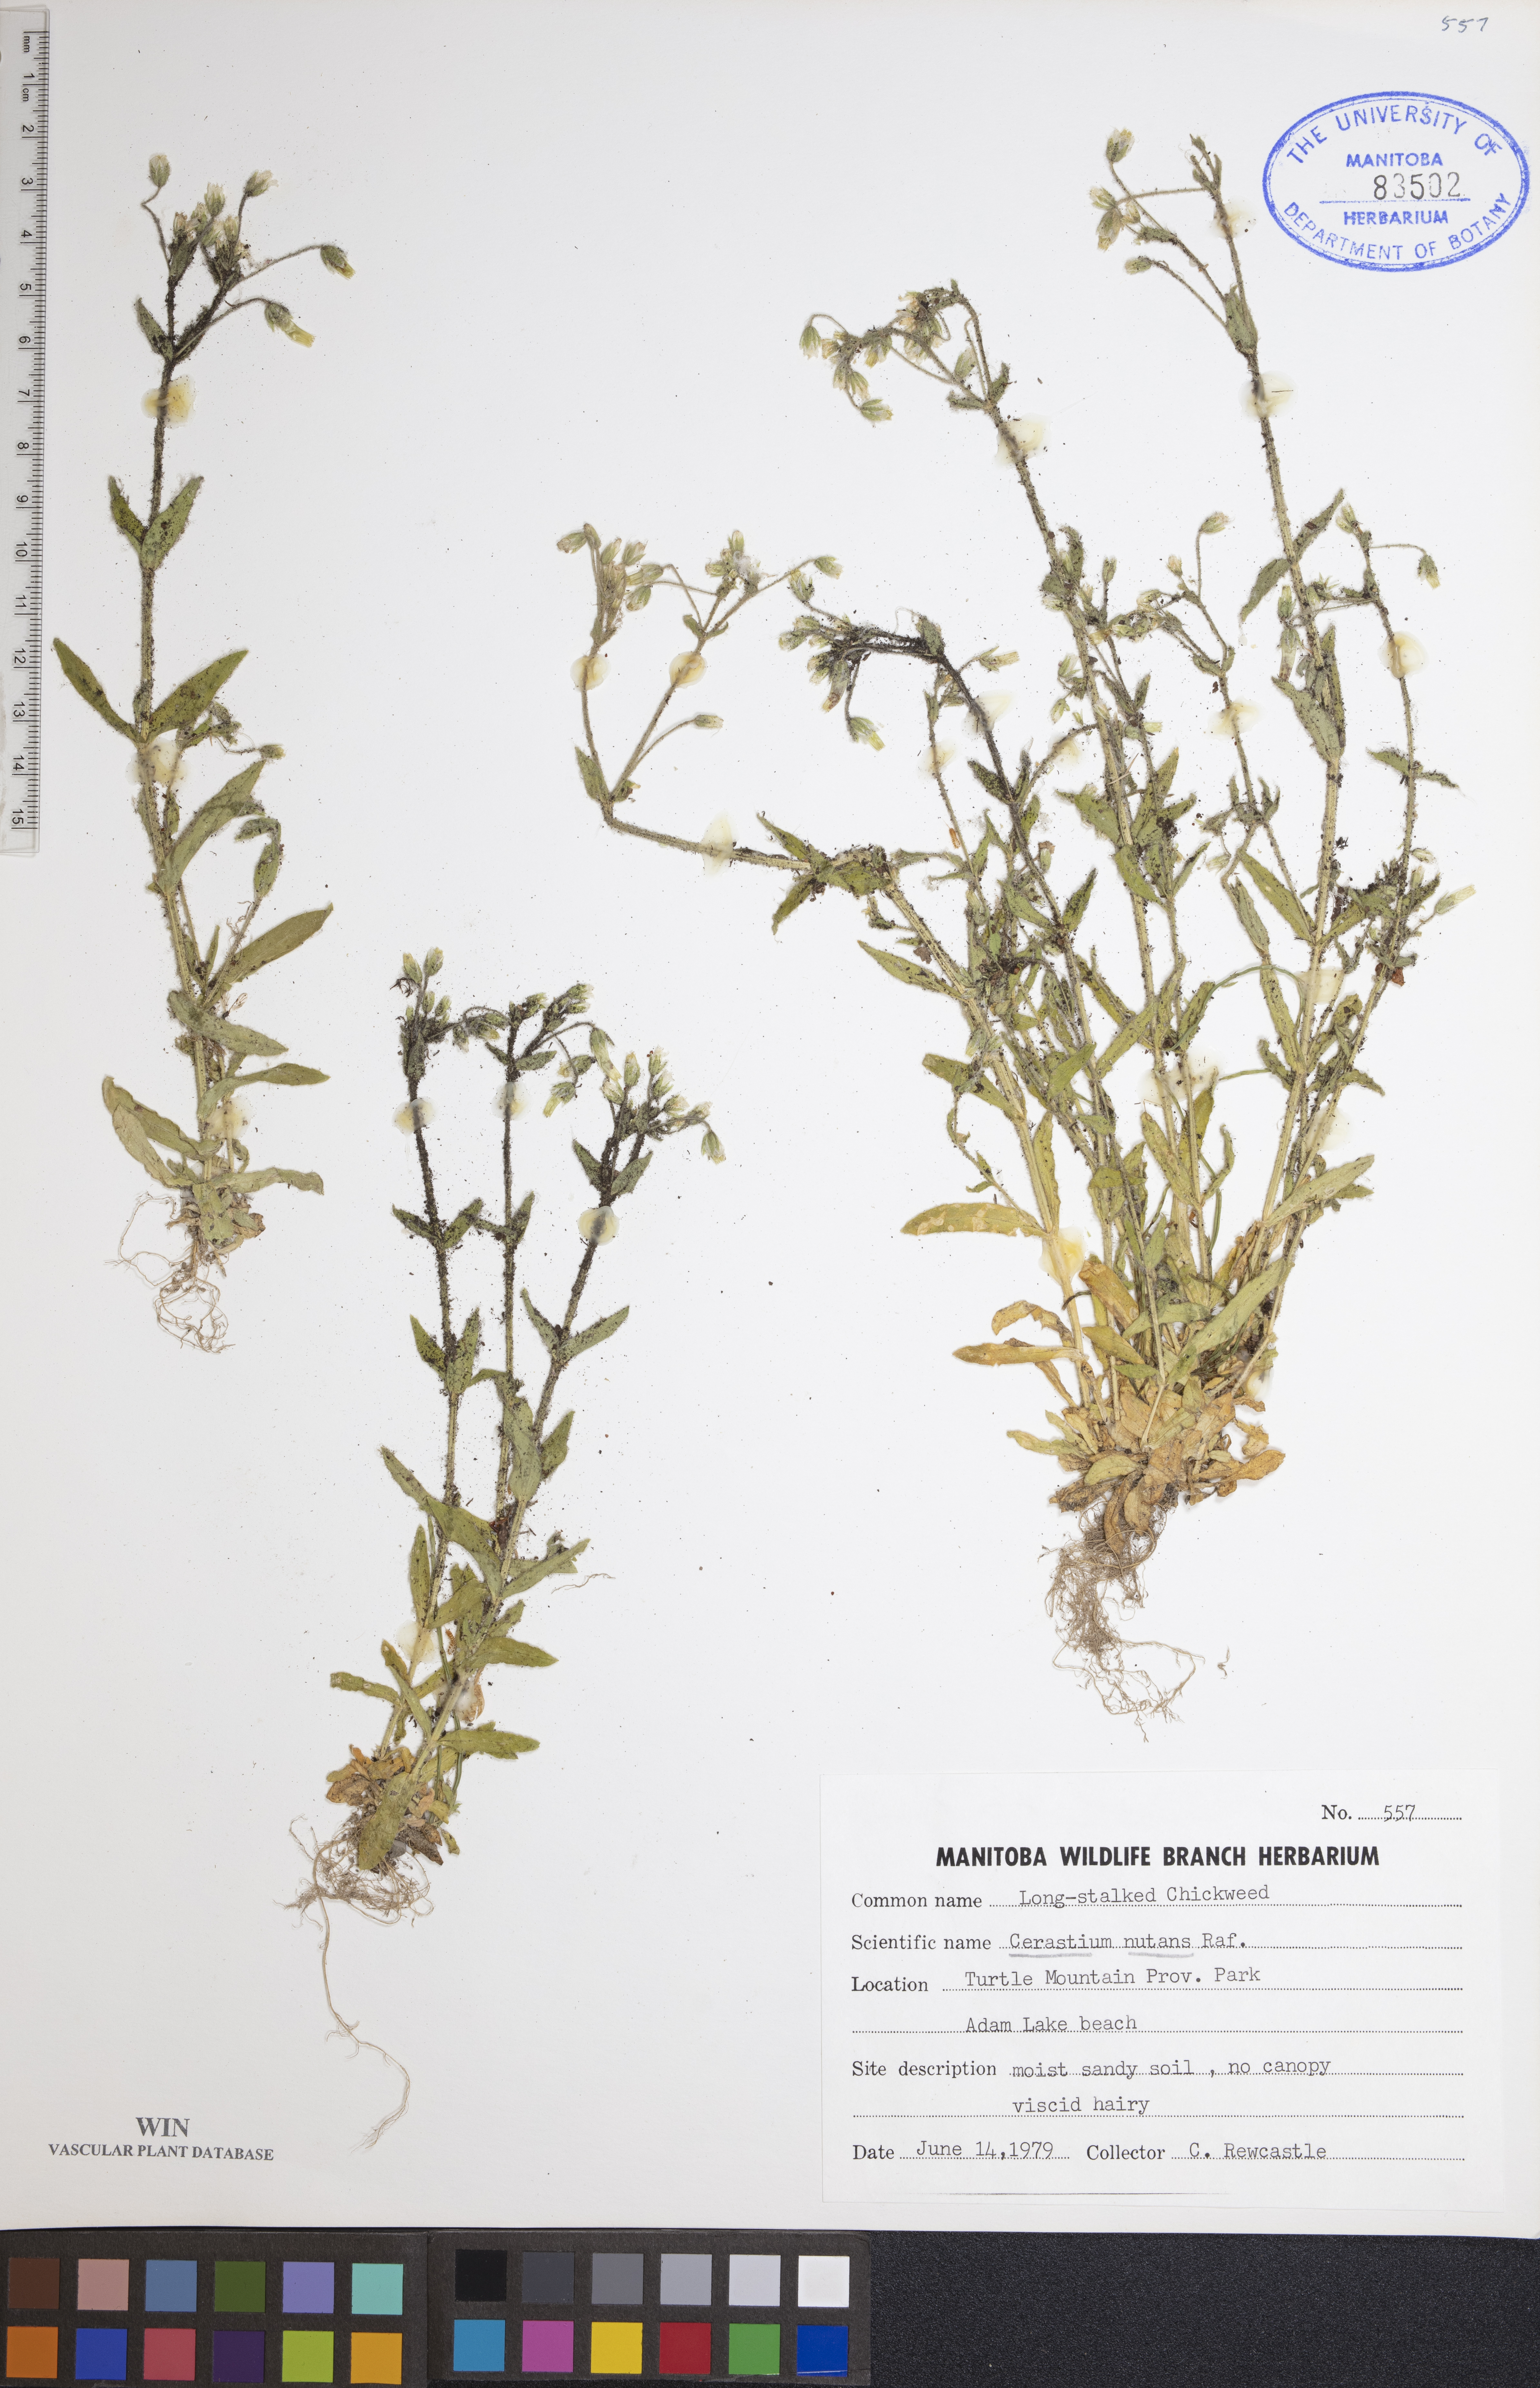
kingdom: Plantae
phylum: Tracheophyta
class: Magnoliopsida
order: Caryophyllales
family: Caryophyllaceae
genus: Cerastium
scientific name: Cerastium nutans
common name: Long-stalked chickweed
